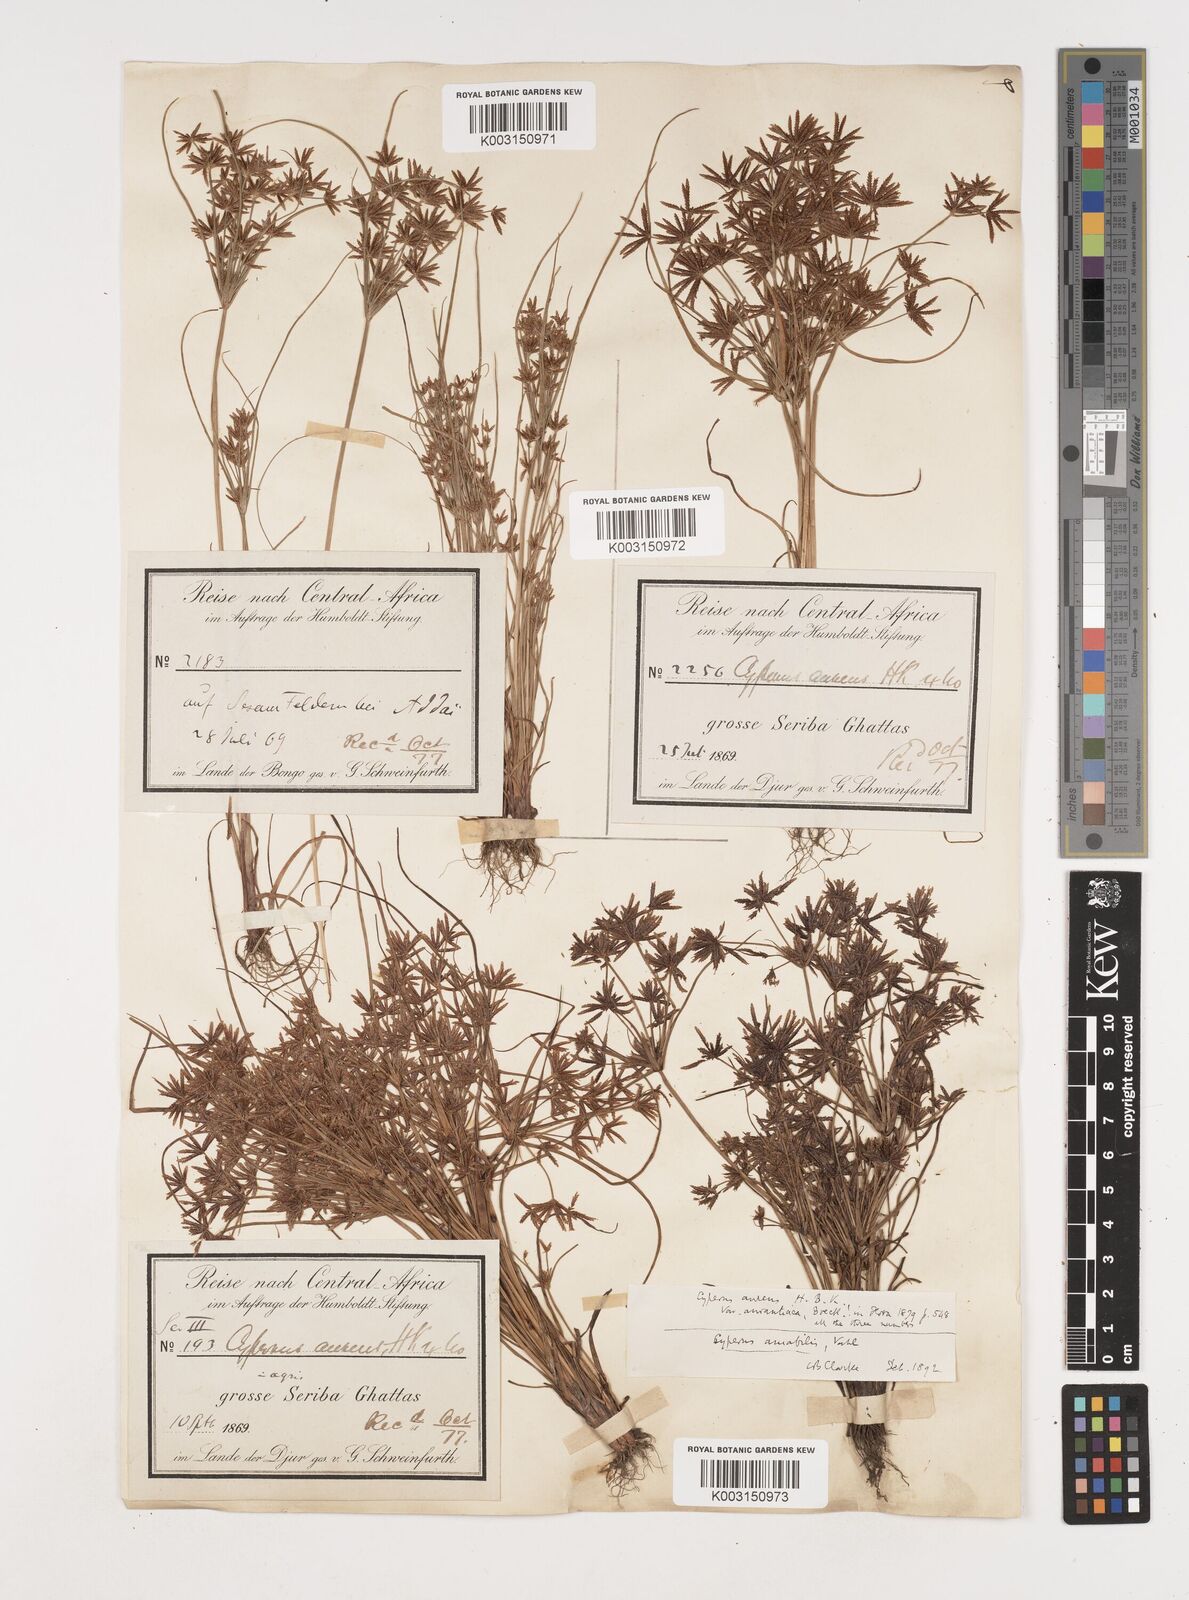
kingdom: Plantae
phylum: Tracheophyta
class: Liliopsida
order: Poales
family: Cyperaceae
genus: Cyperus
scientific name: Cyperus amabilis
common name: Foothill flat sedge
